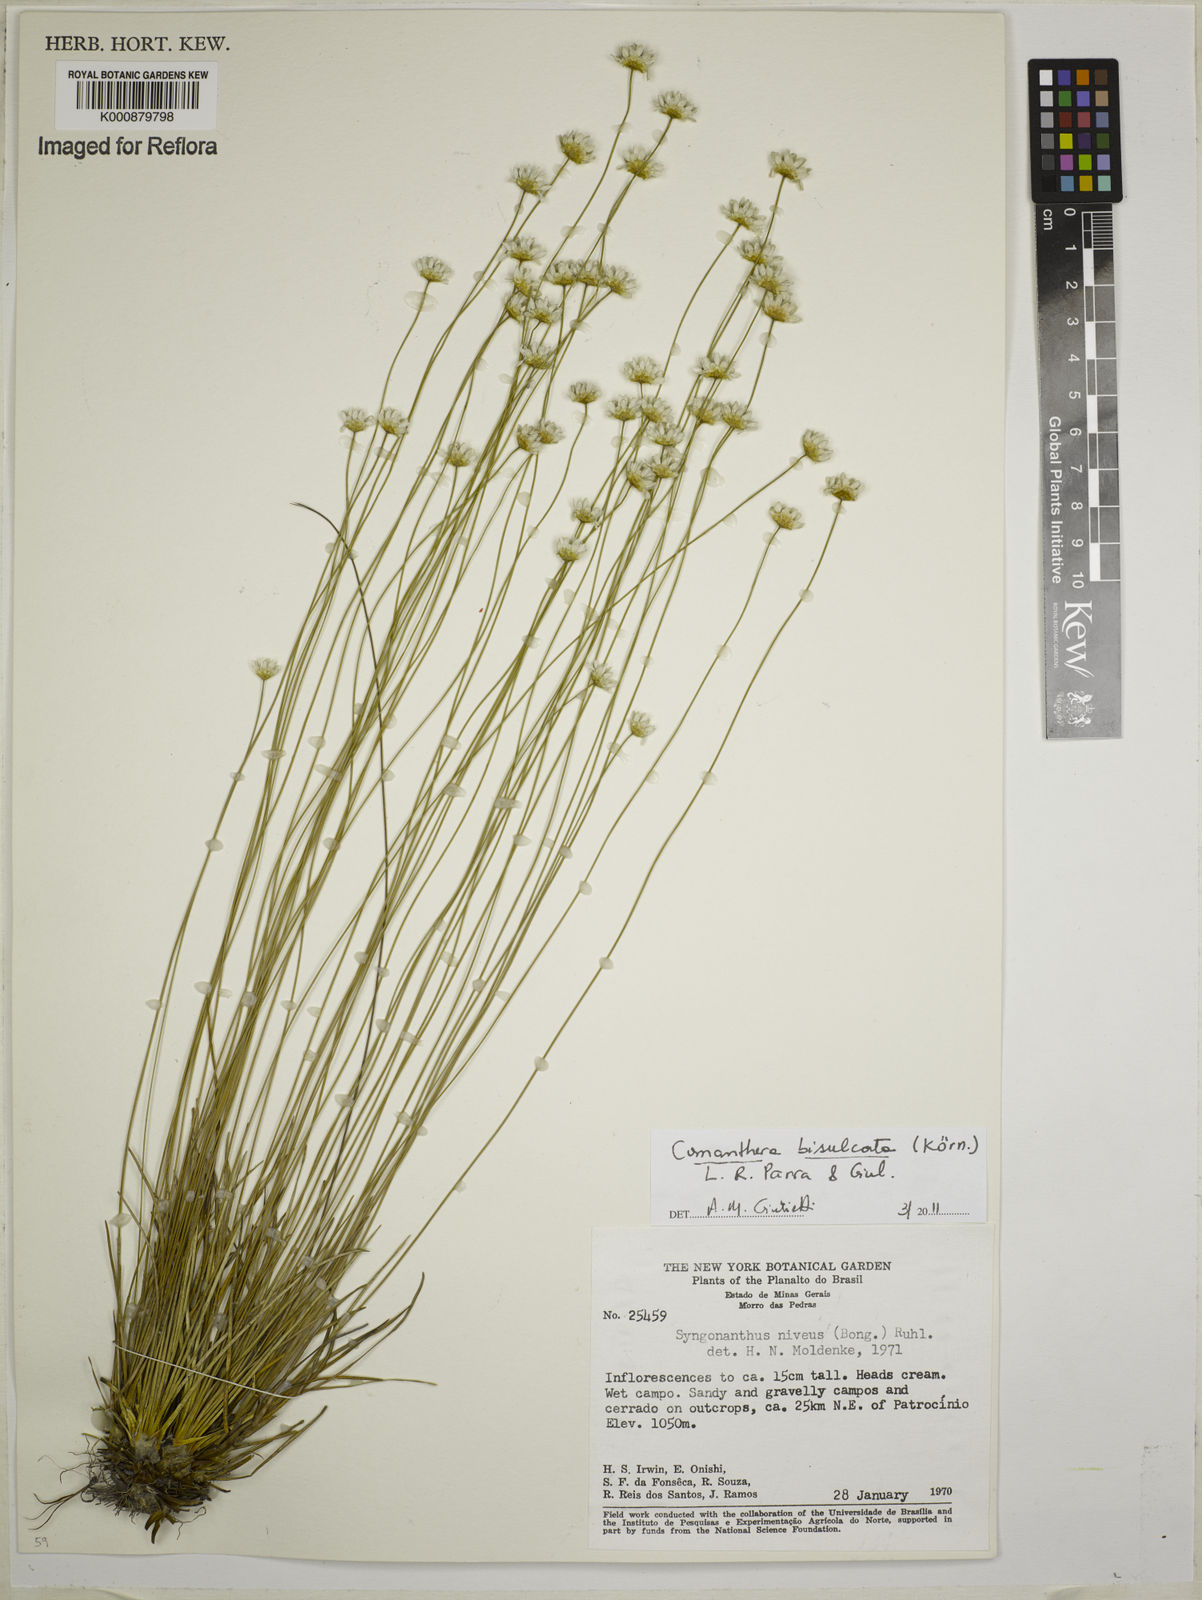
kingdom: Plantae
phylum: Tracheophyta
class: Liliopsida
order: Poales
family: Eriocaulaceae
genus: Comanthera
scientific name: Comanthera
